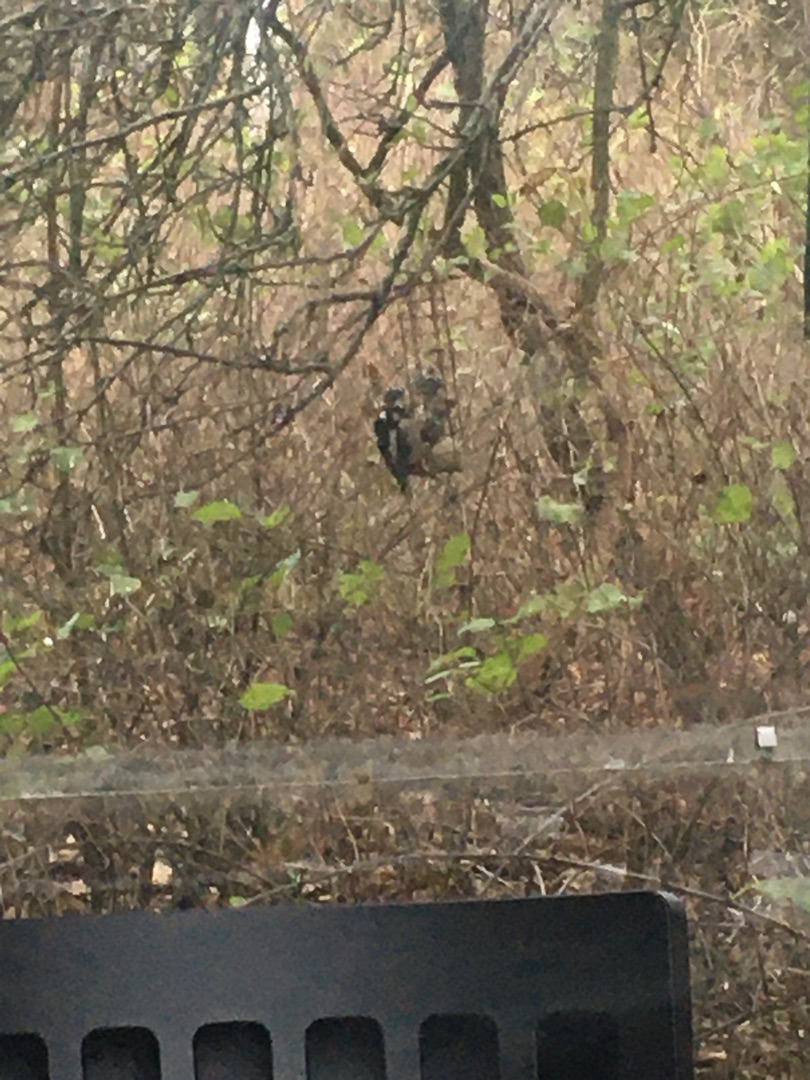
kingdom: Animalia
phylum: Chordata
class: Aves
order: Piciformes
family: Picidae
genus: Dendrocopos
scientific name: Dendrocopos major
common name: Stor flagspætte
